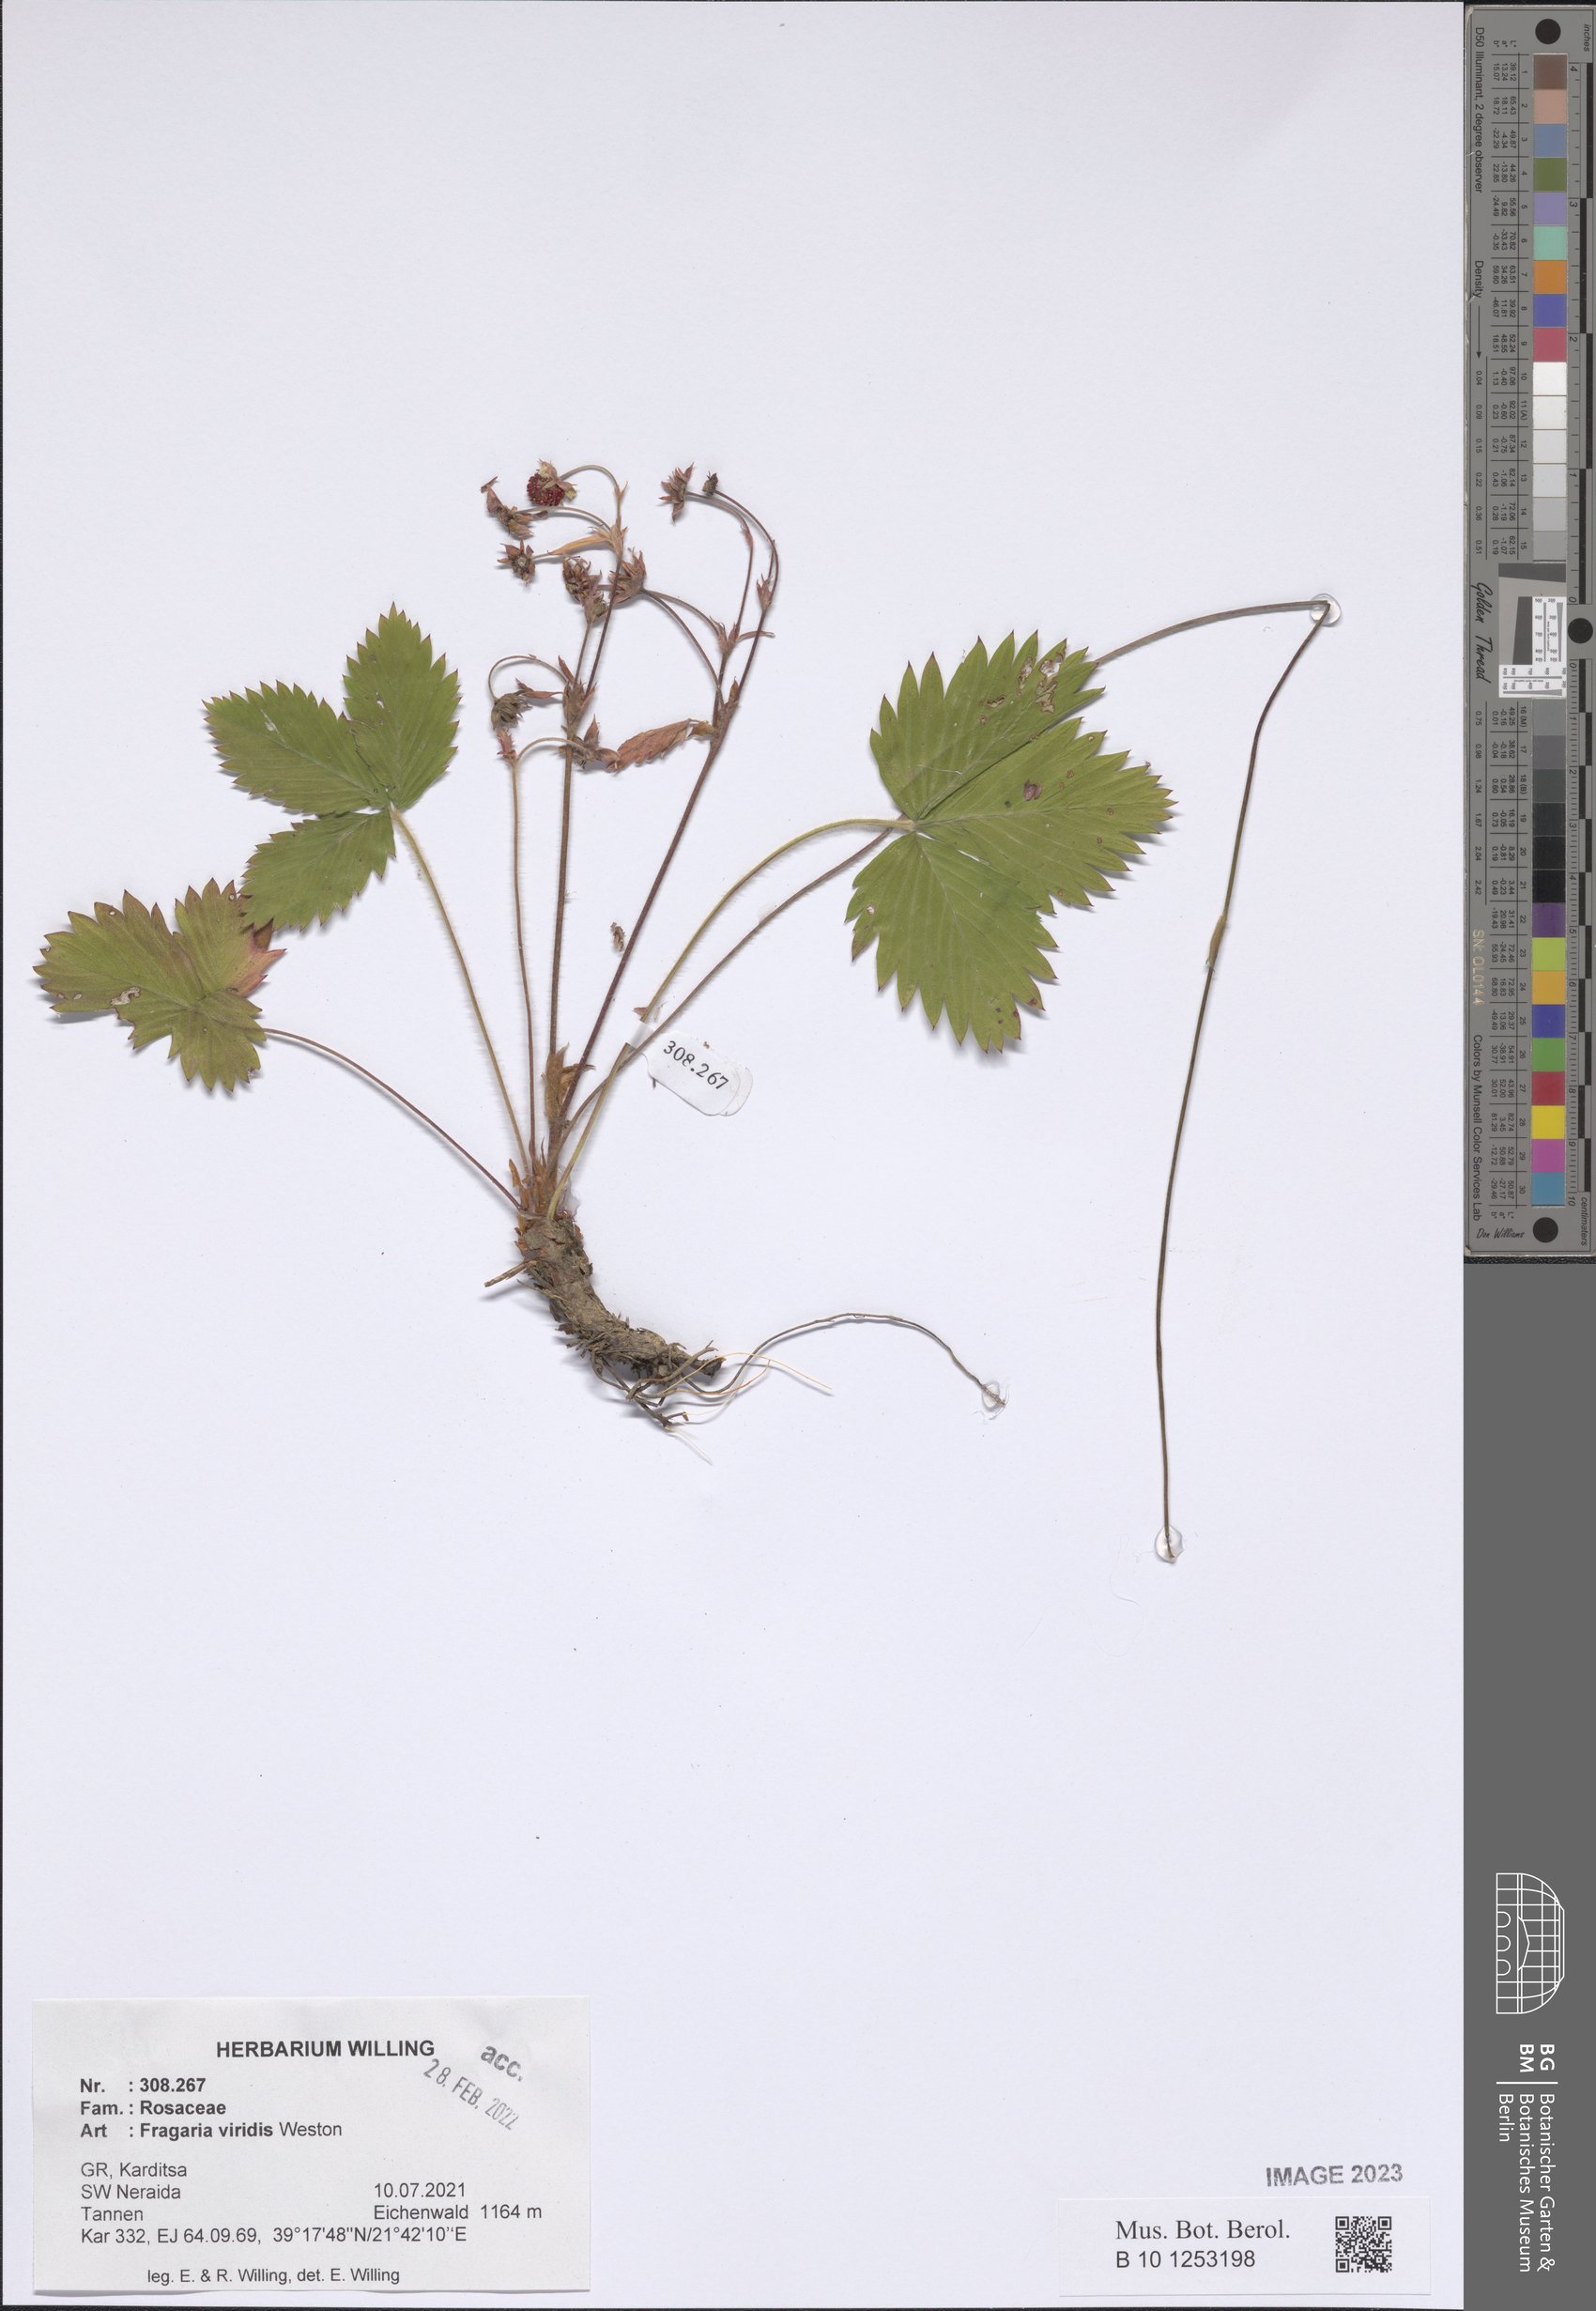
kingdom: Plantae
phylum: Tracheophyta
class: Magnoliopsida
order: Rosales
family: Rosaceae
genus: Fragaria
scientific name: Fragaria viridis
